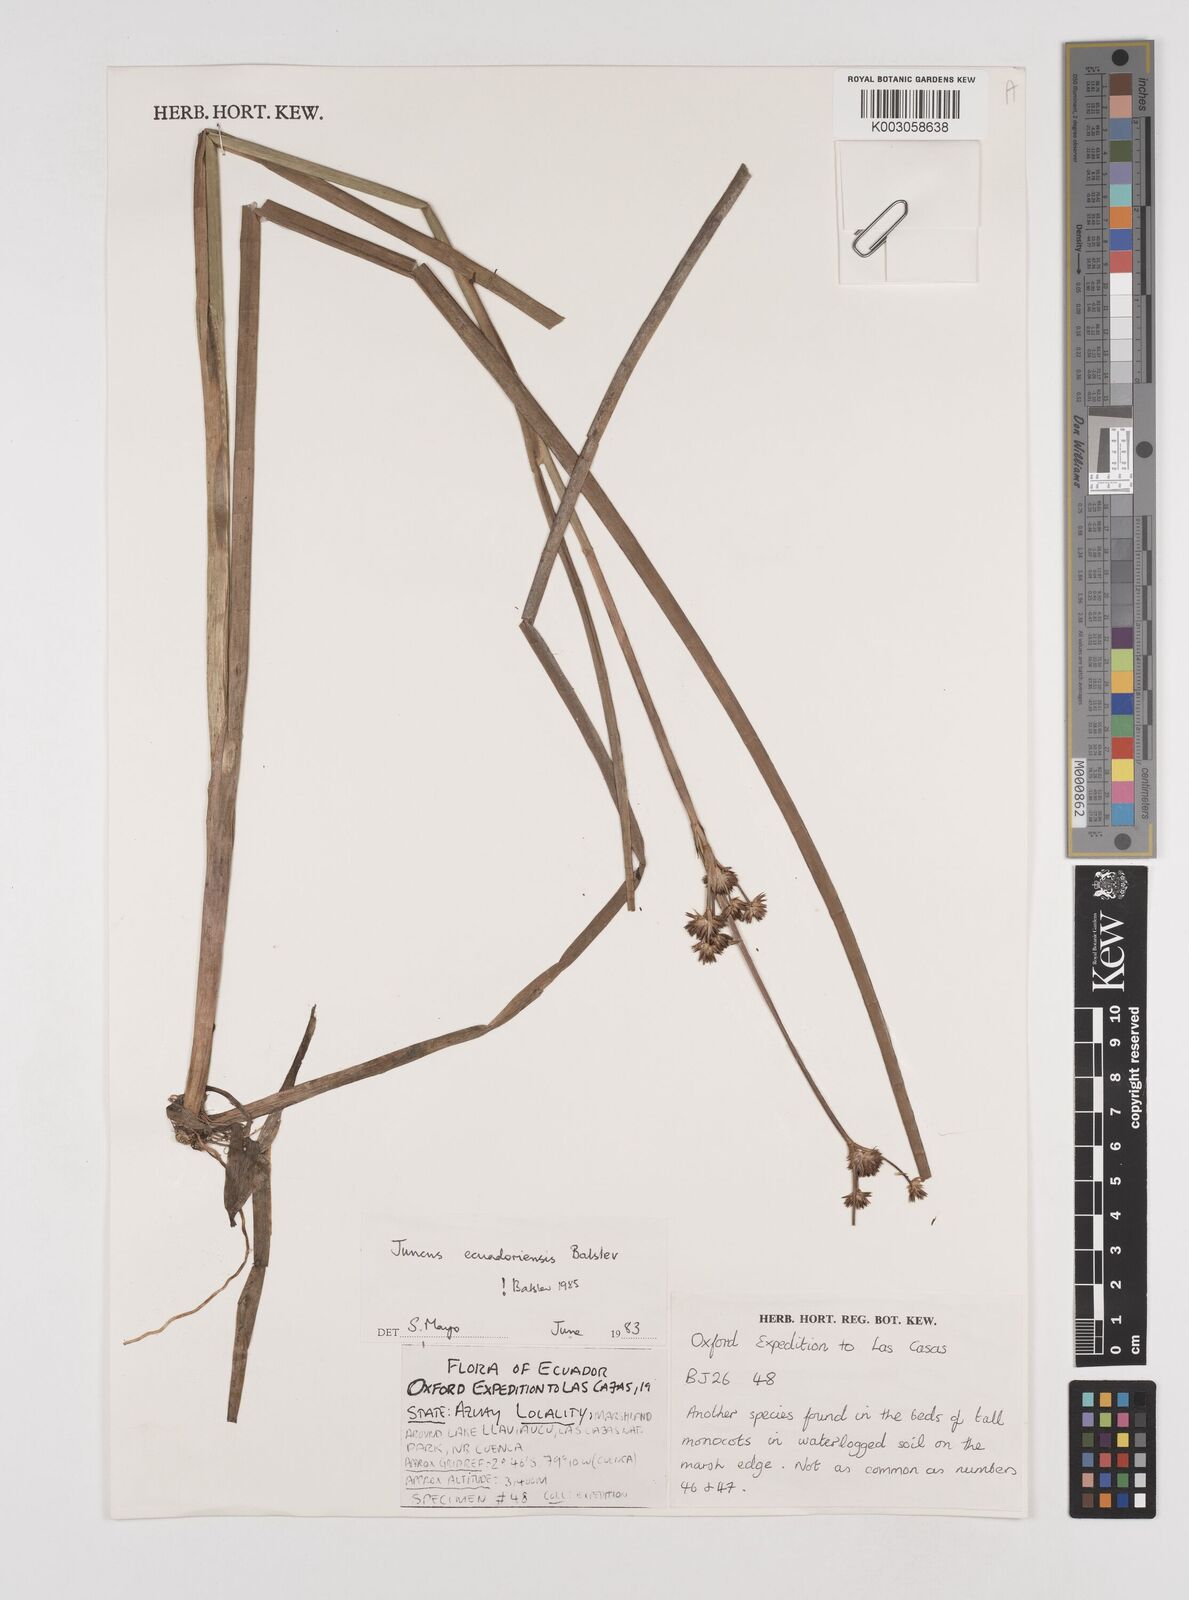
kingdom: Plantae
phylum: Tracheophyta
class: Liliopsida
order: Poales
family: Juncaceae
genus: Juncus
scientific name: Juncus ecuadoriensis
